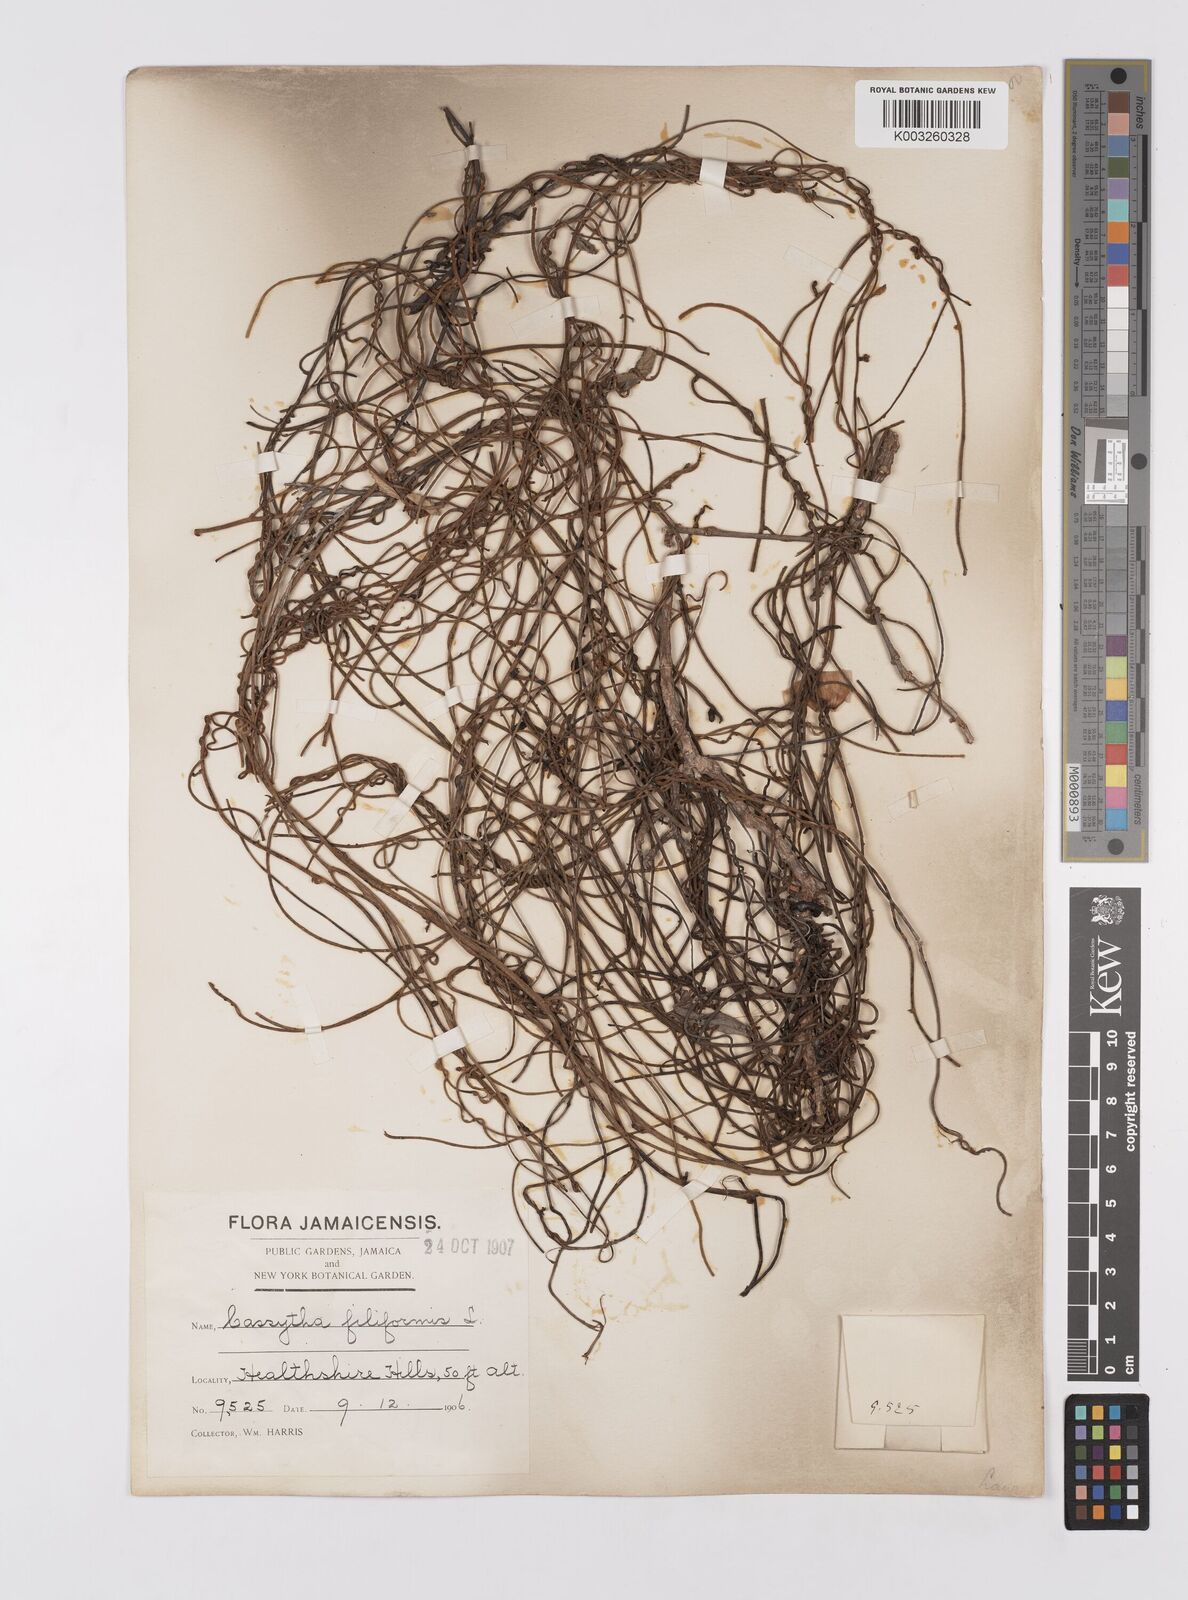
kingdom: Plantae
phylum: Tracheophyta
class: Magnoliopsida
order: Laurales
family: Lauraceae
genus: Cassytha
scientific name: Cassytha filiformis
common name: Dodder-laurel
